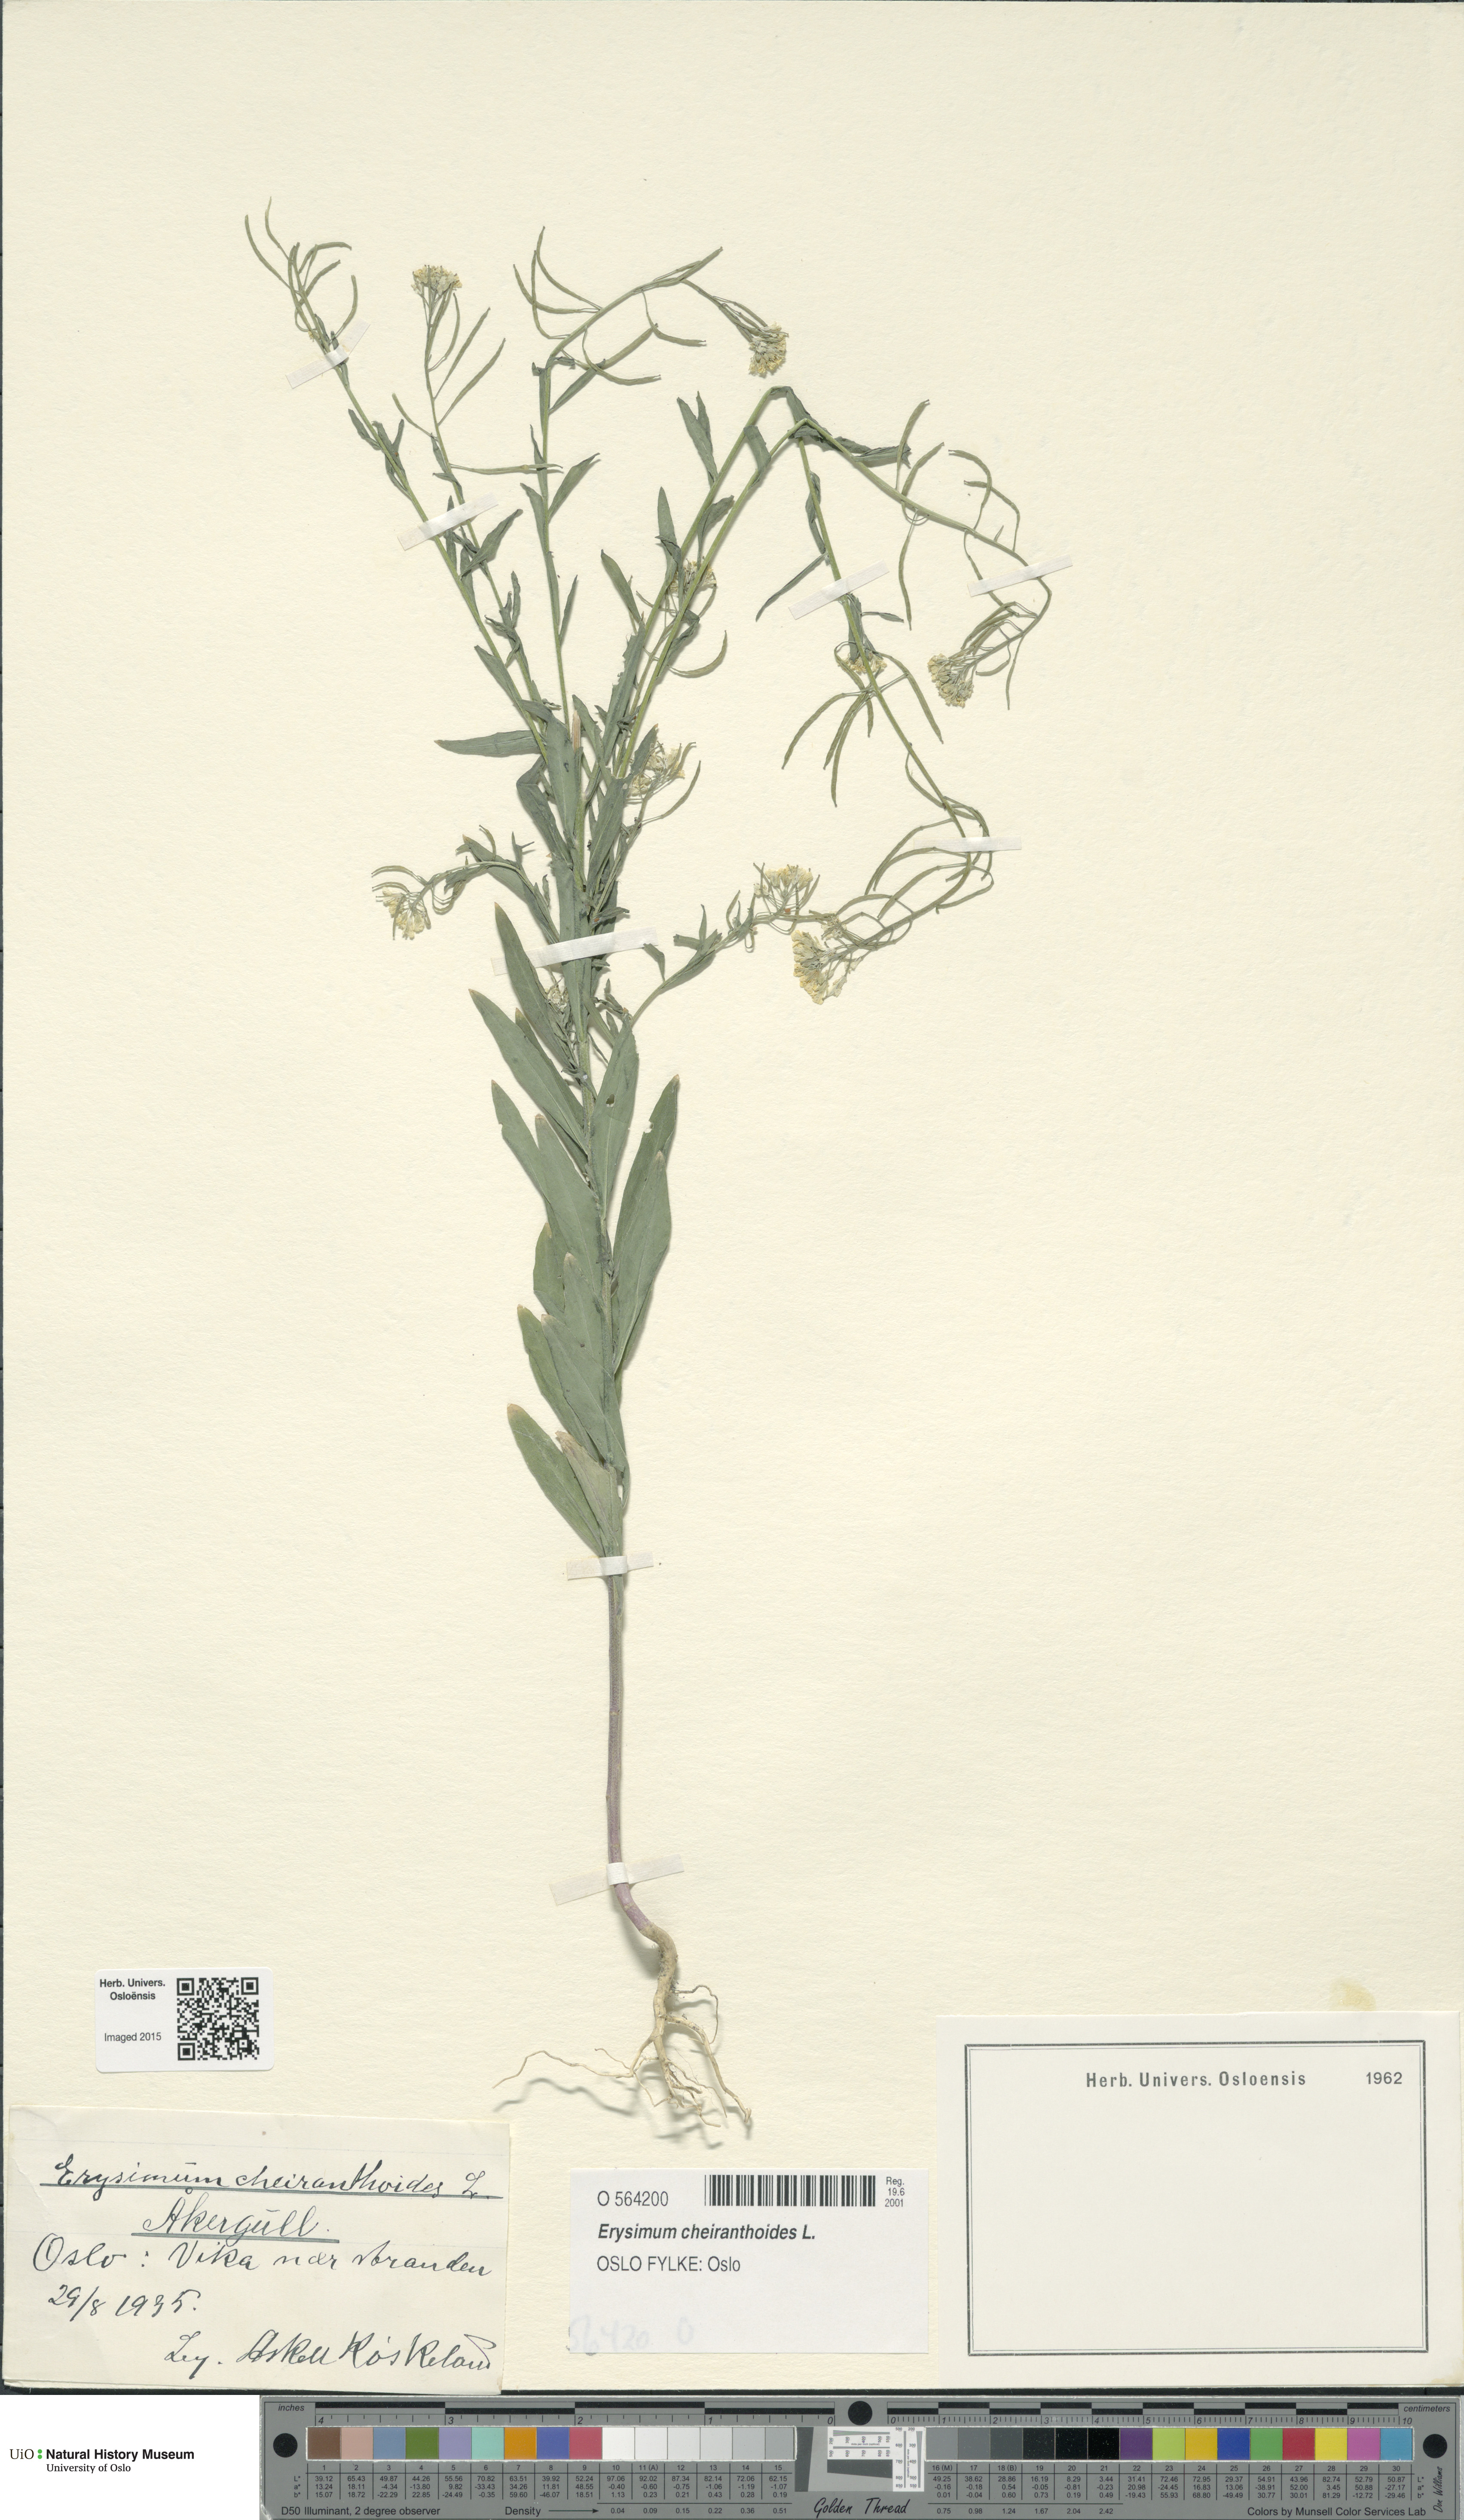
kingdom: Plantae
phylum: Tracheophyta
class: Magnoliopsida
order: Brassicales
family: Brassicaceae
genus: Erysimum
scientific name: Erysimum cheiranthoides
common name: Treacle mustard
